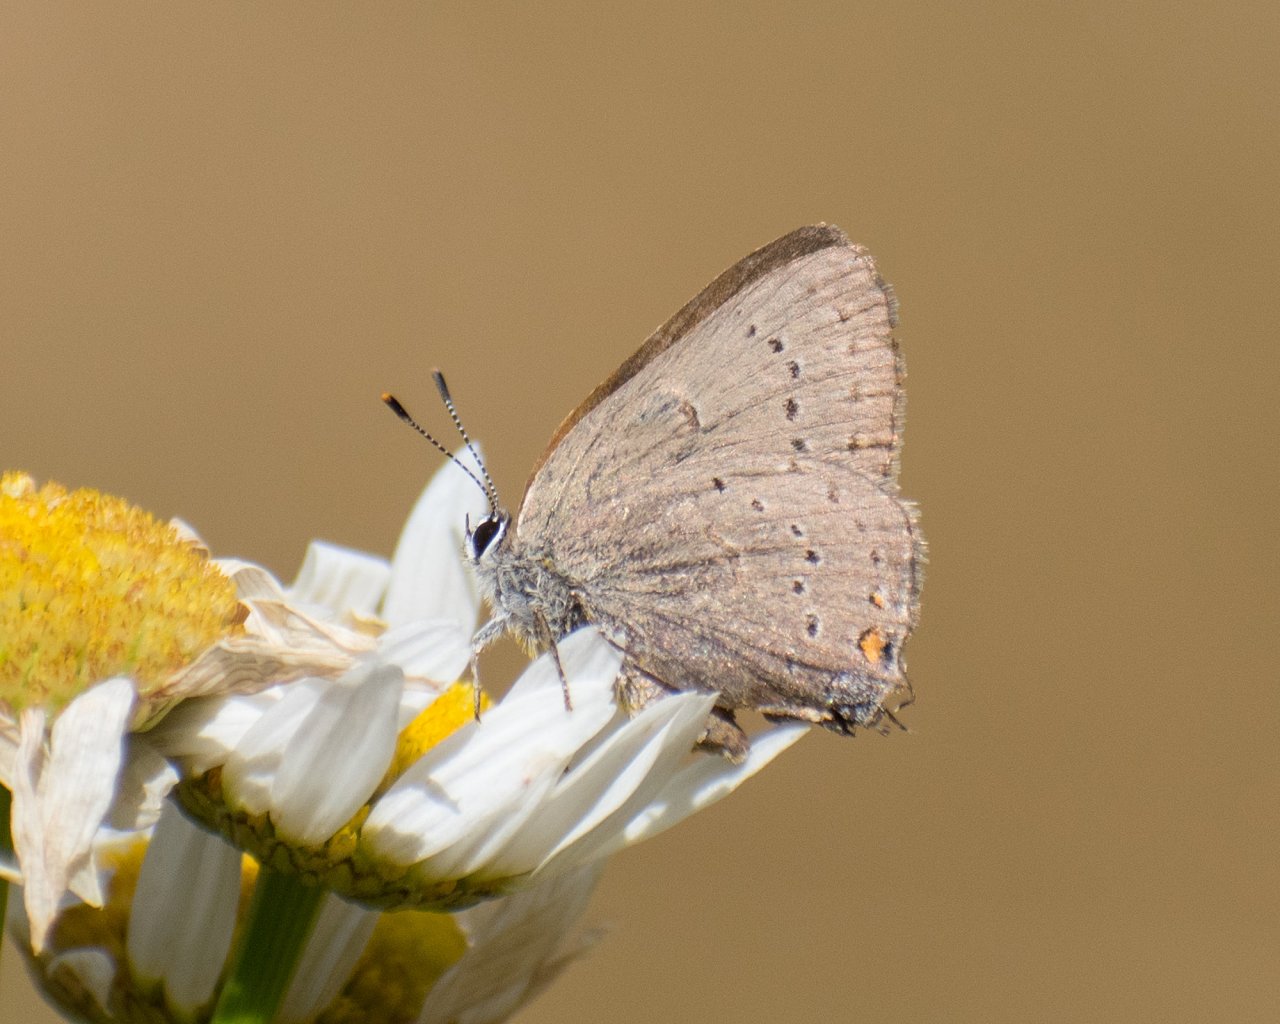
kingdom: Animalia
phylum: Arthropoda
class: Insecta
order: Lepidoptera
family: Lycaenidae
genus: Strymon
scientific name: Strymon sylvinus
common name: Sylvan Hairstreak
